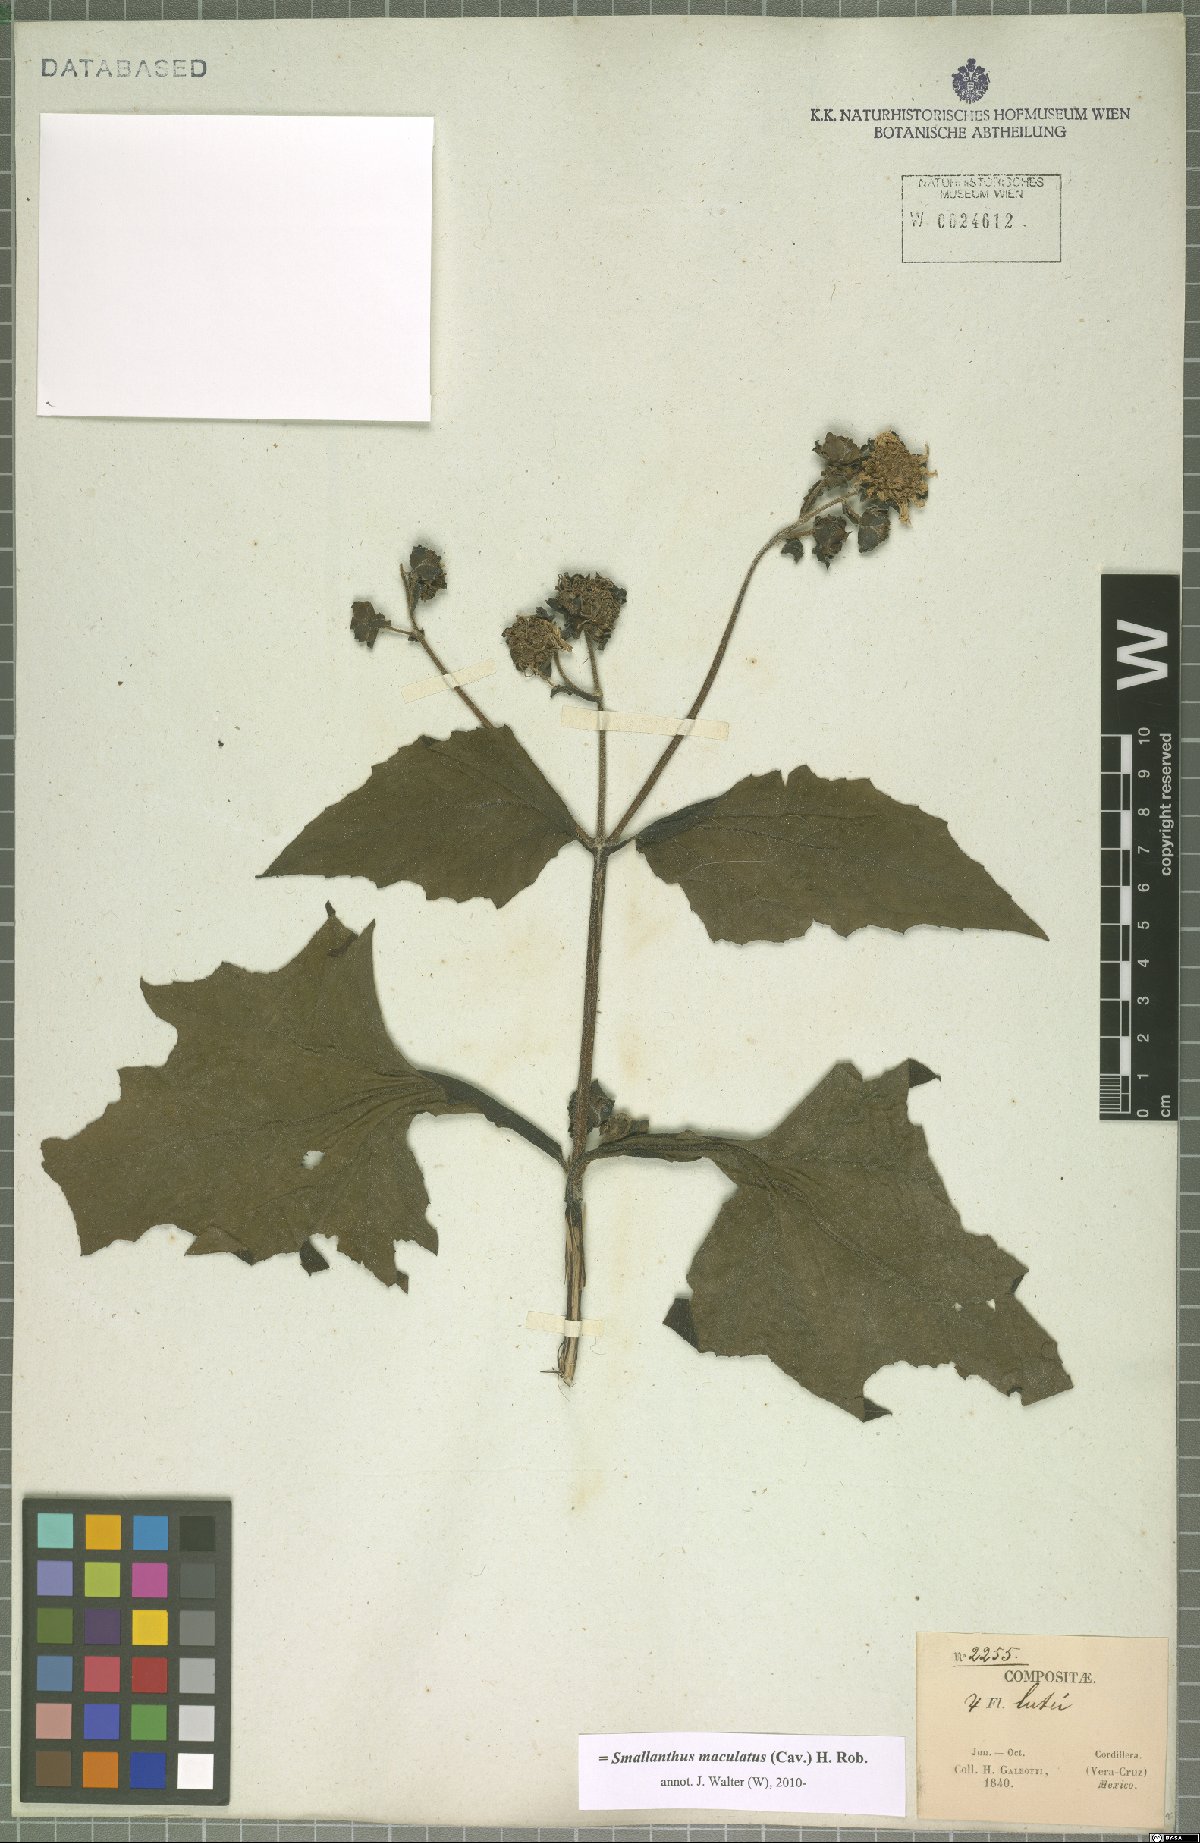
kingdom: Plantae
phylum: Tracheophyta
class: Magnoliopsida
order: Asterales
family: Asteraceae
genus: Smallanthus
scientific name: Smallanthus maculatus
